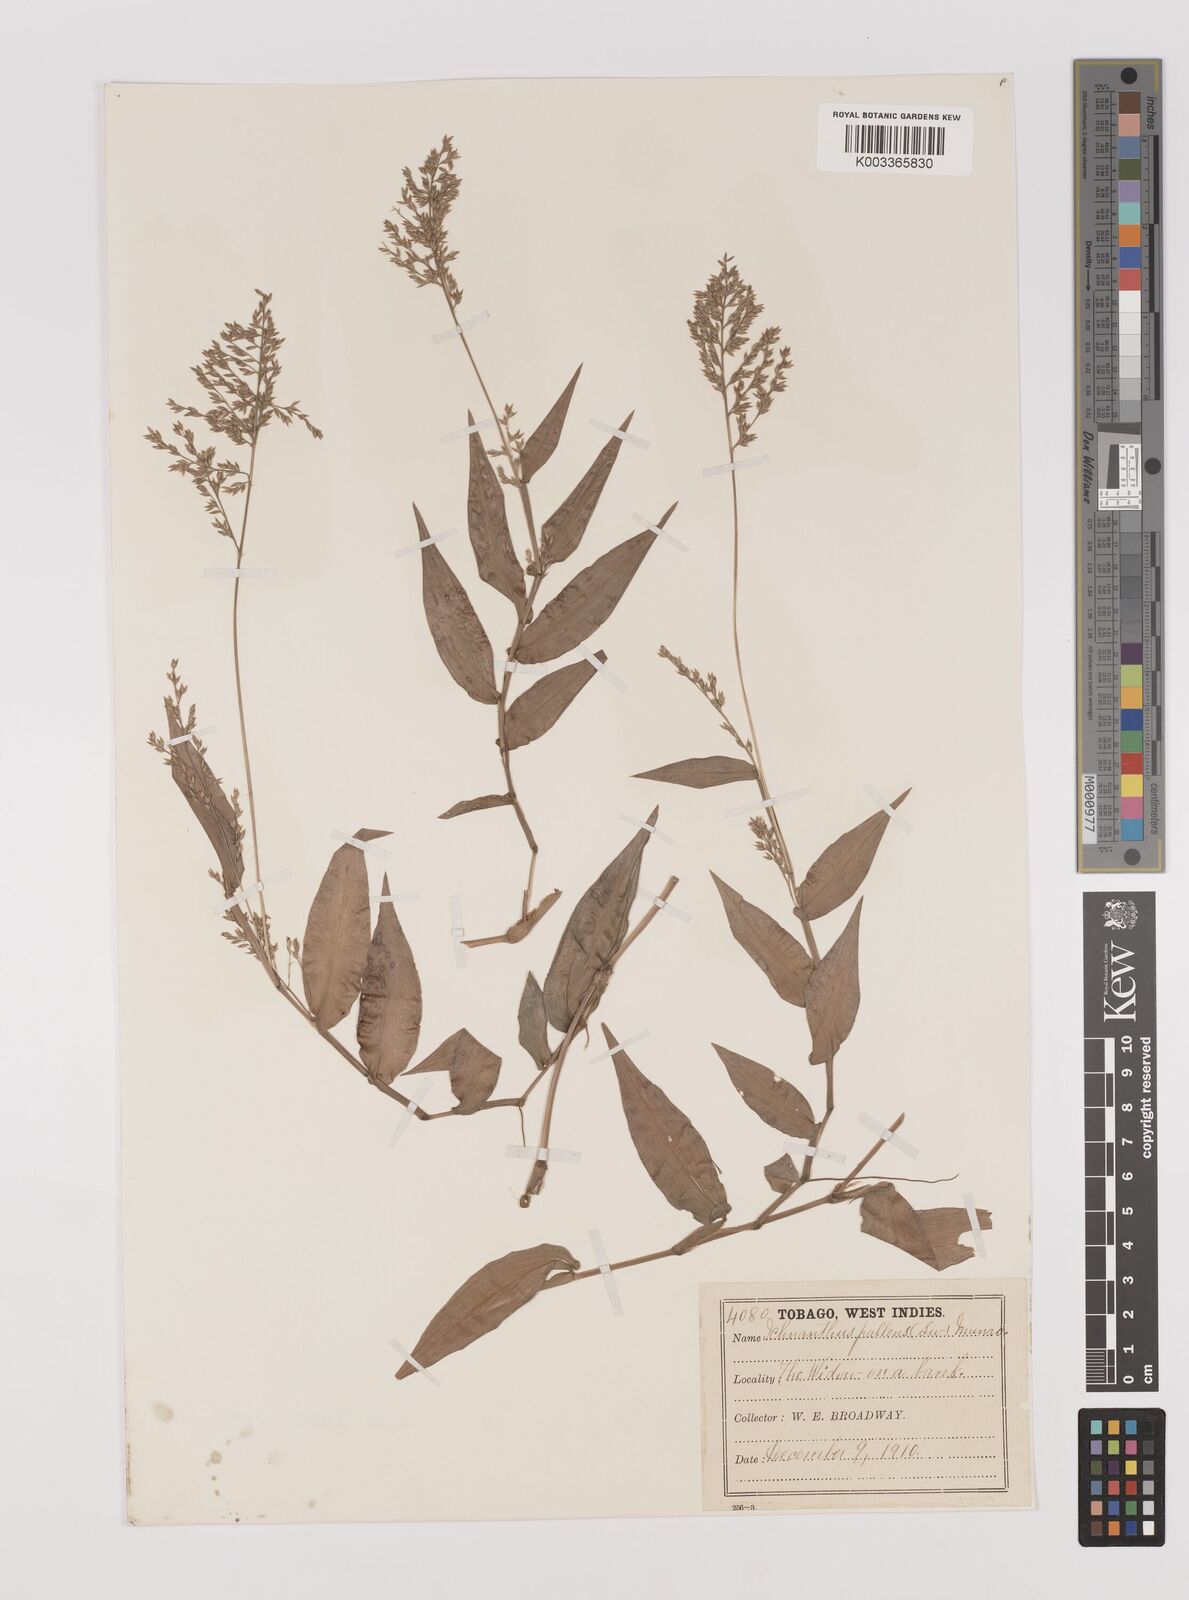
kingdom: Plantae
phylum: Tracheophyta
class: Liliopsida
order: Poales
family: Poaceae
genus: Ichnanthus
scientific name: Ichnanthus pallens
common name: Water grass
